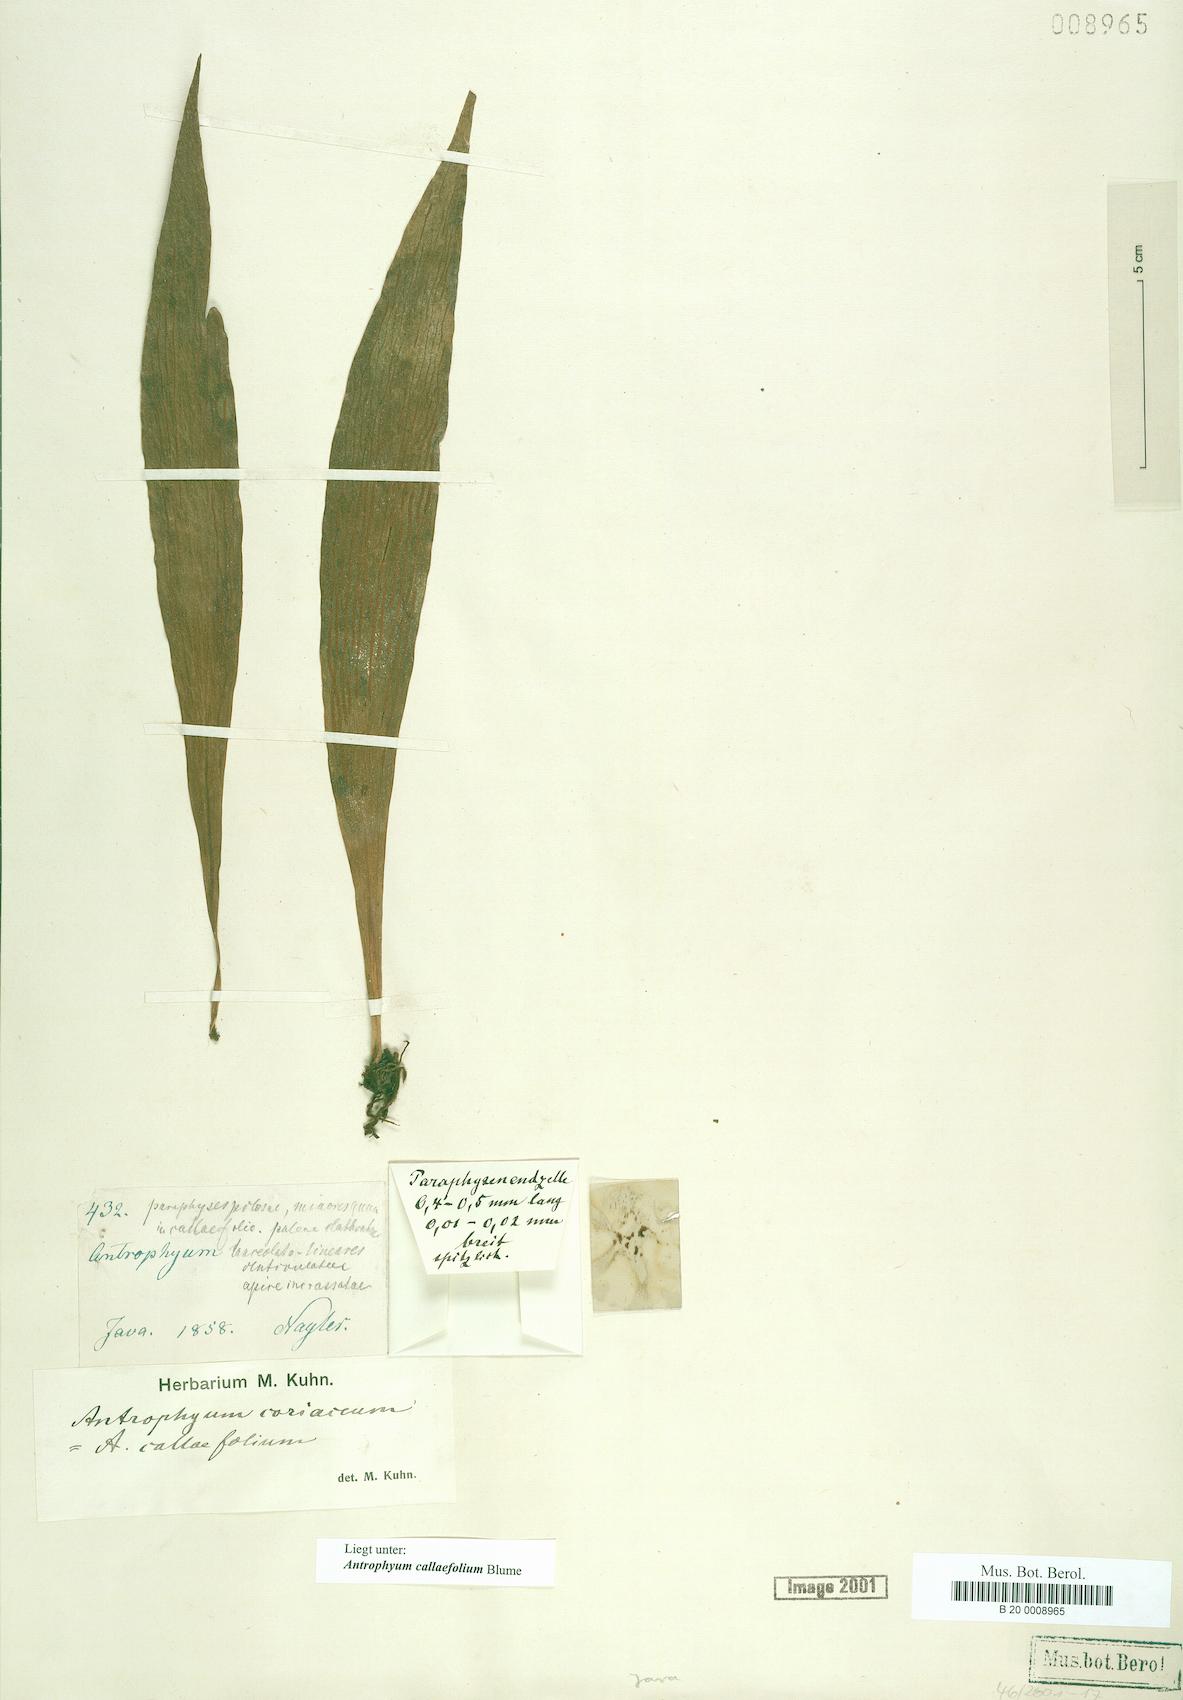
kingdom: Plantae
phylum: Tracheophyta
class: Polypodiopsida
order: Polypodiales
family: Pteridaceae
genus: Antrophyum
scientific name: Antrophyum callifolium
